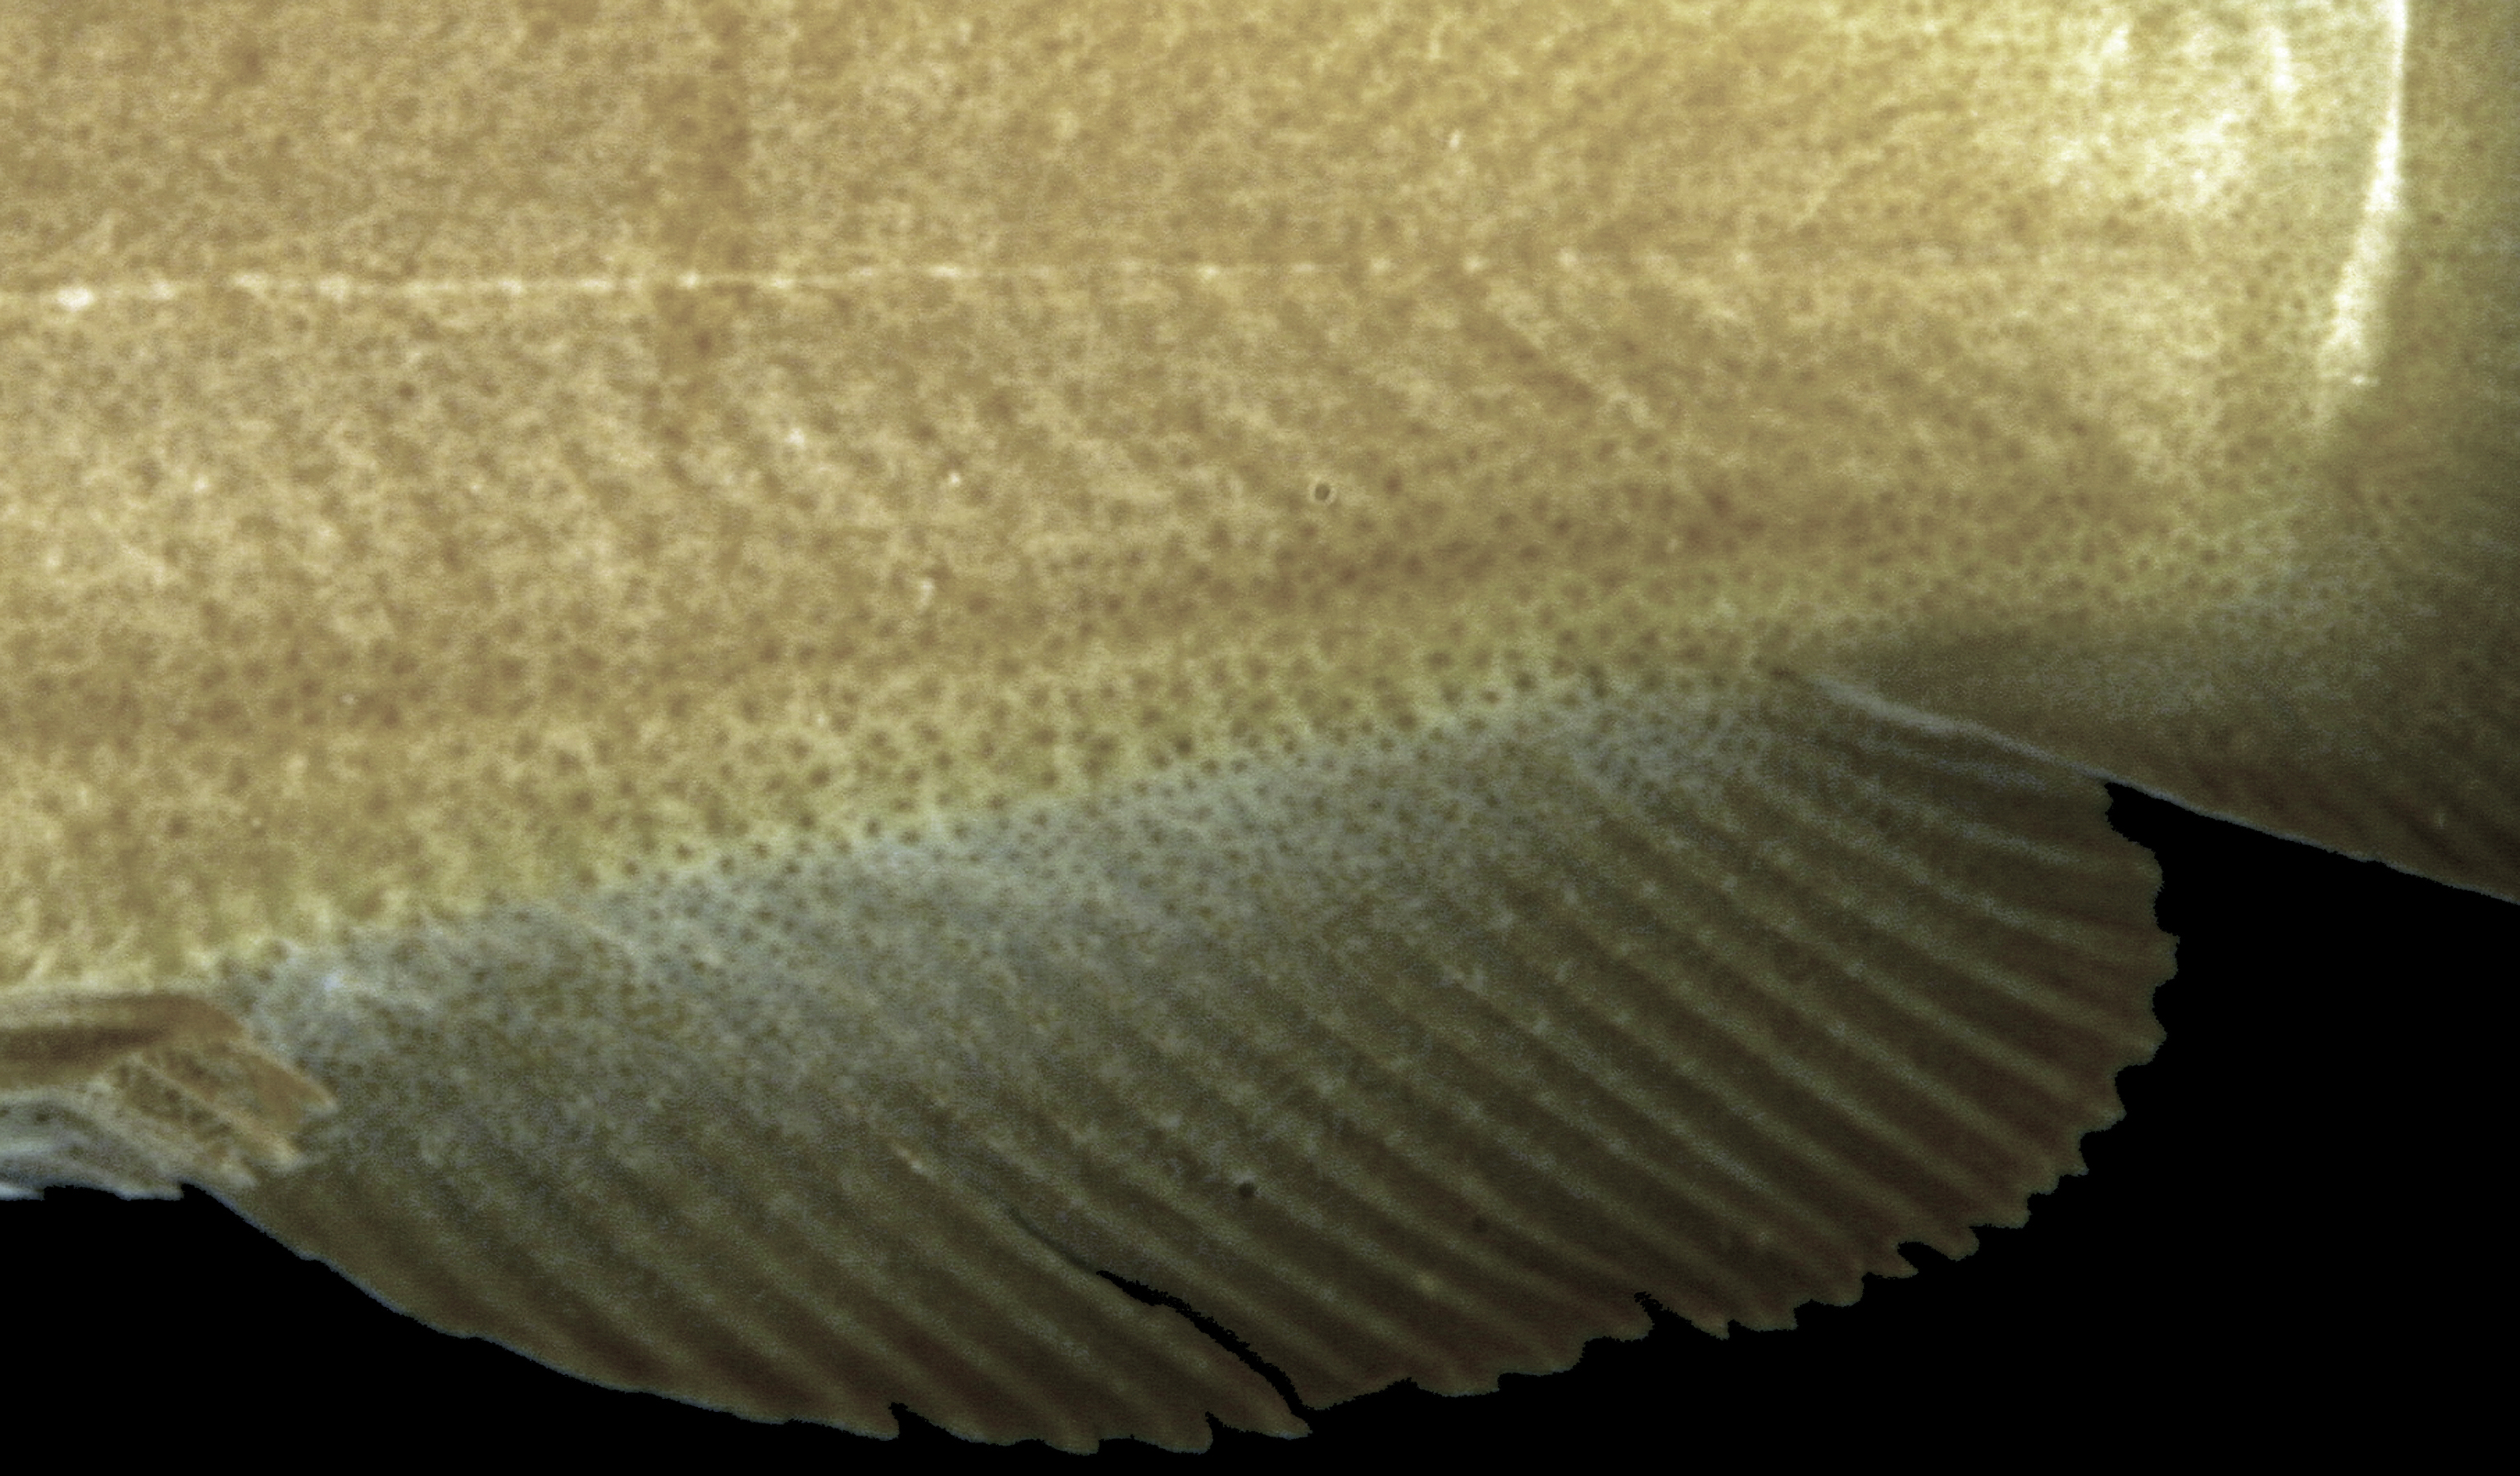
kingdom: Animalia
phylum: Chordata
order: Siluriformes
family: Ictaluridae
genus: Ameiurus
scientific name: Ameiurus natalis
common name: Yellow bullhead
